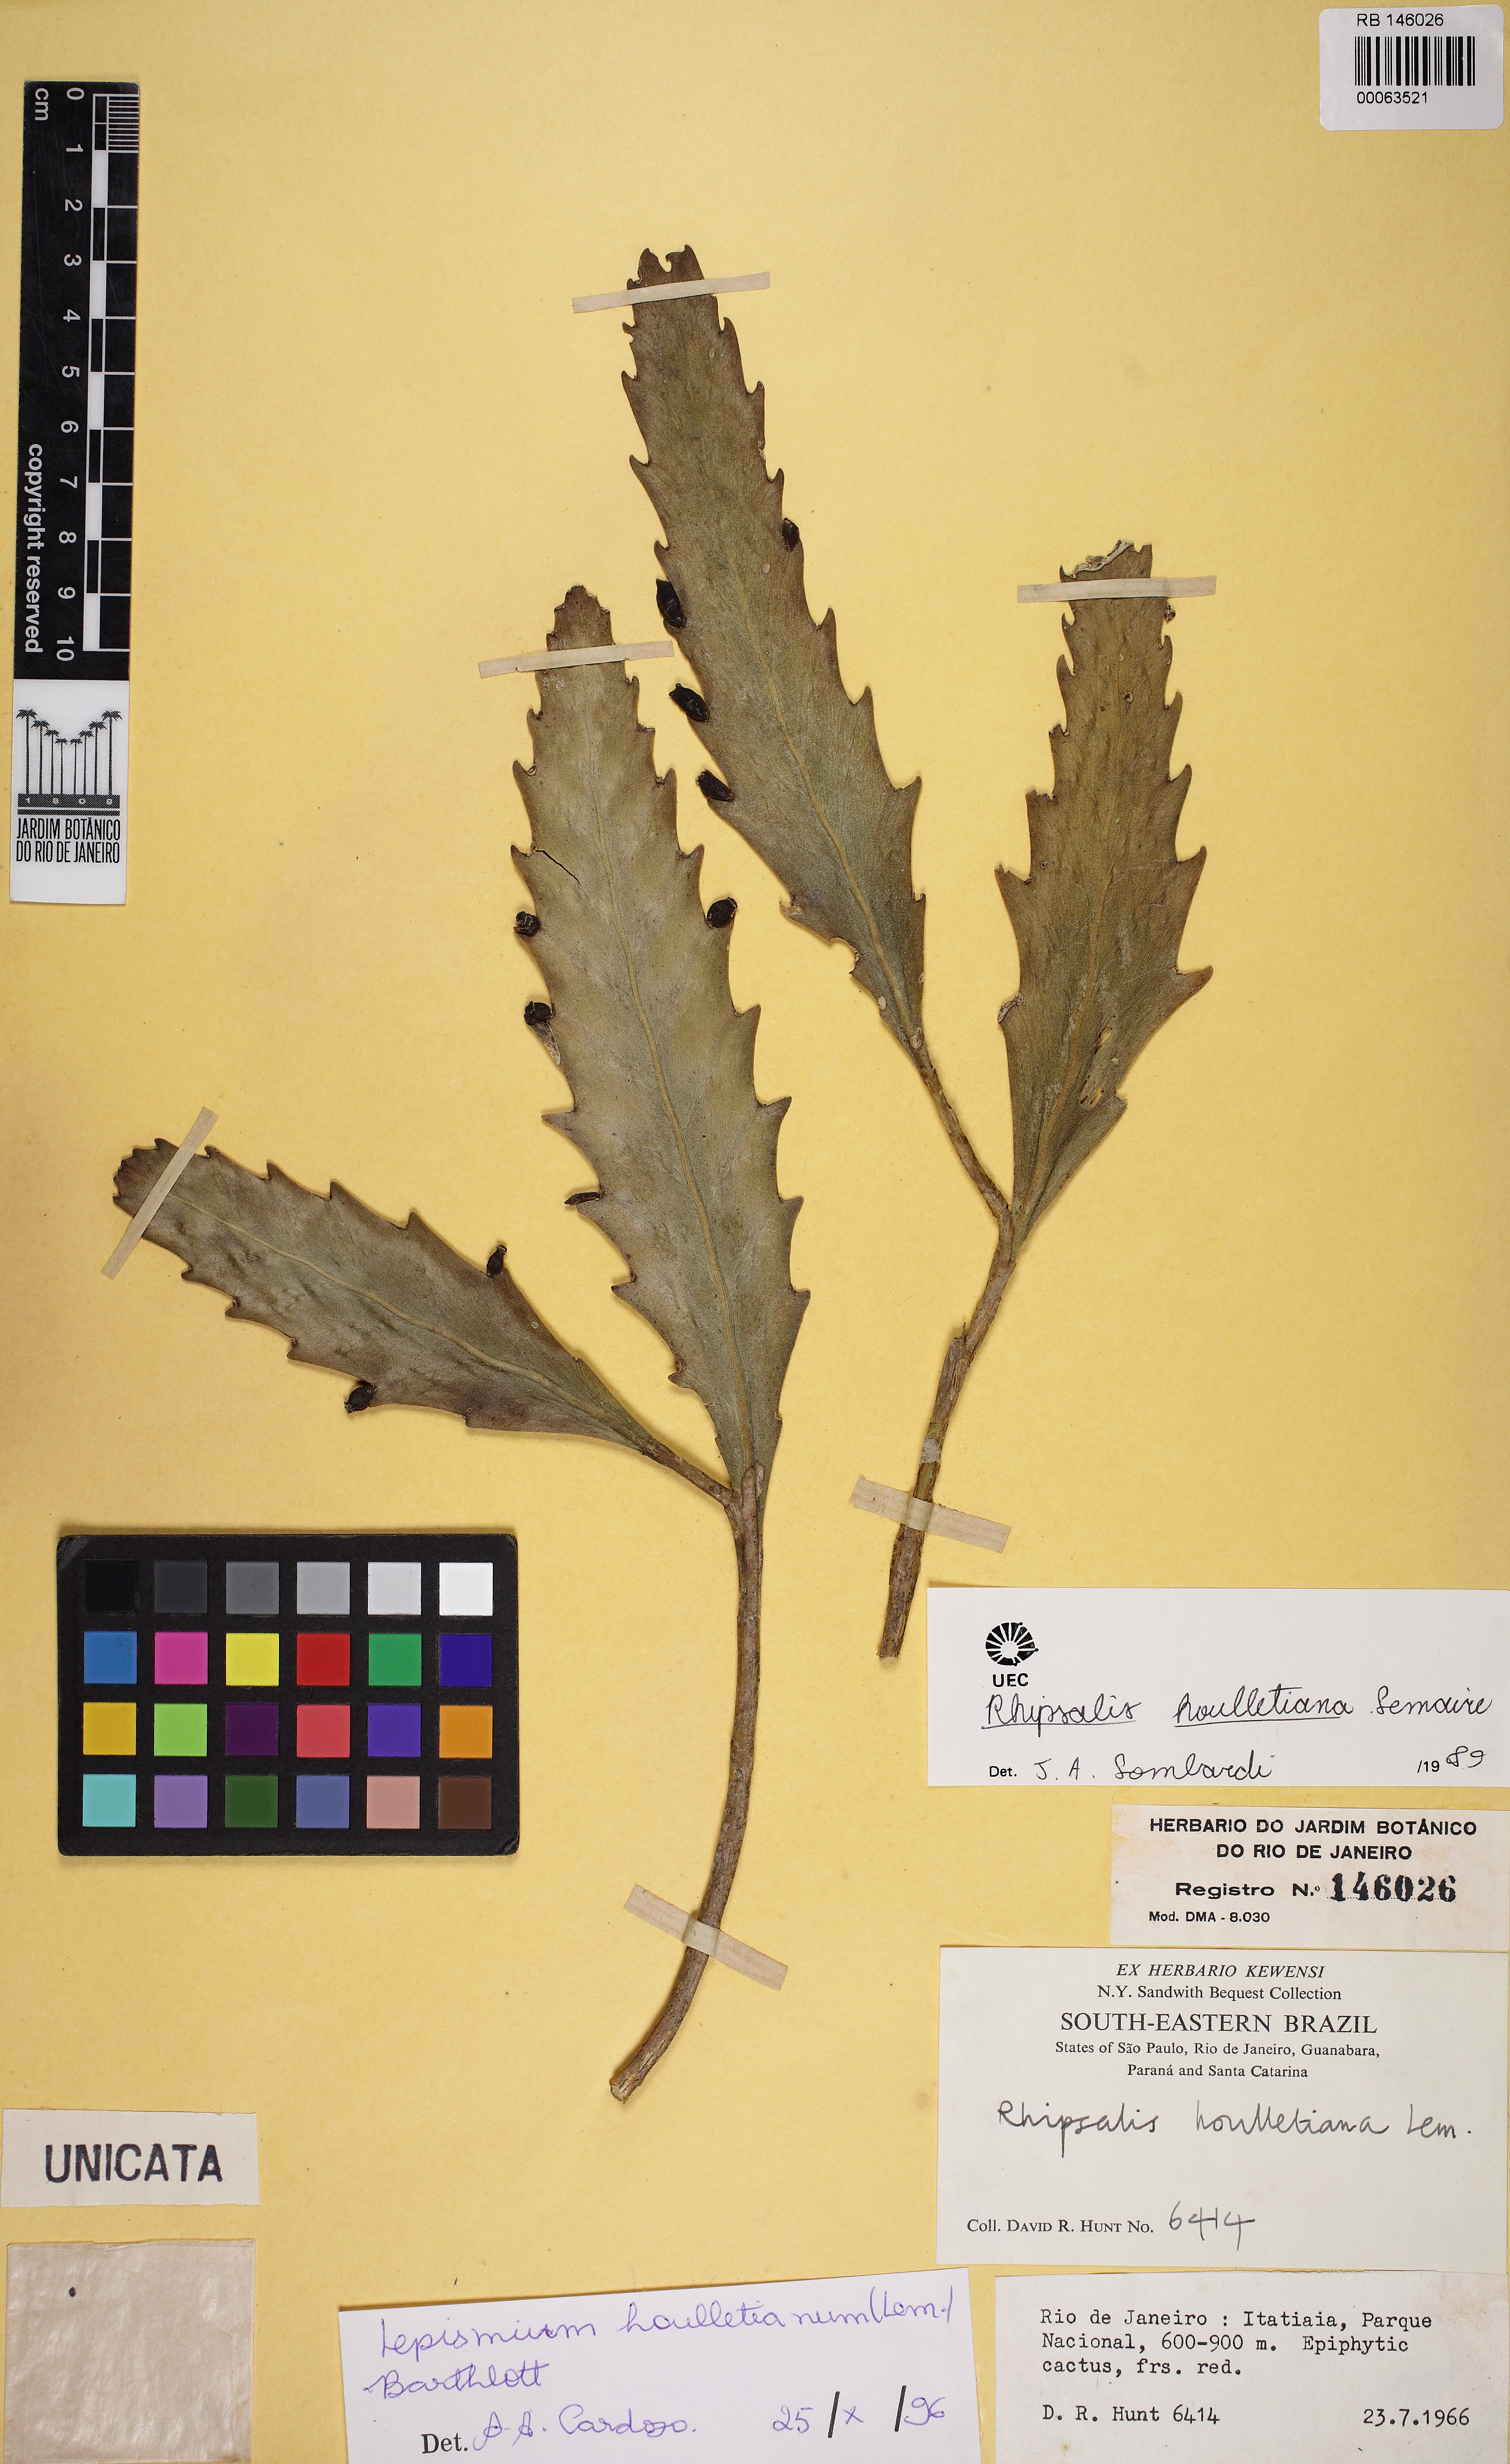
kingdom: Plantae
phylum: Tracheophyta
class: Magnoliopsida
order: Caryophyllales
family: Cactaceae
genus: Lepismium
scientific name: Lepismium houlletianum
